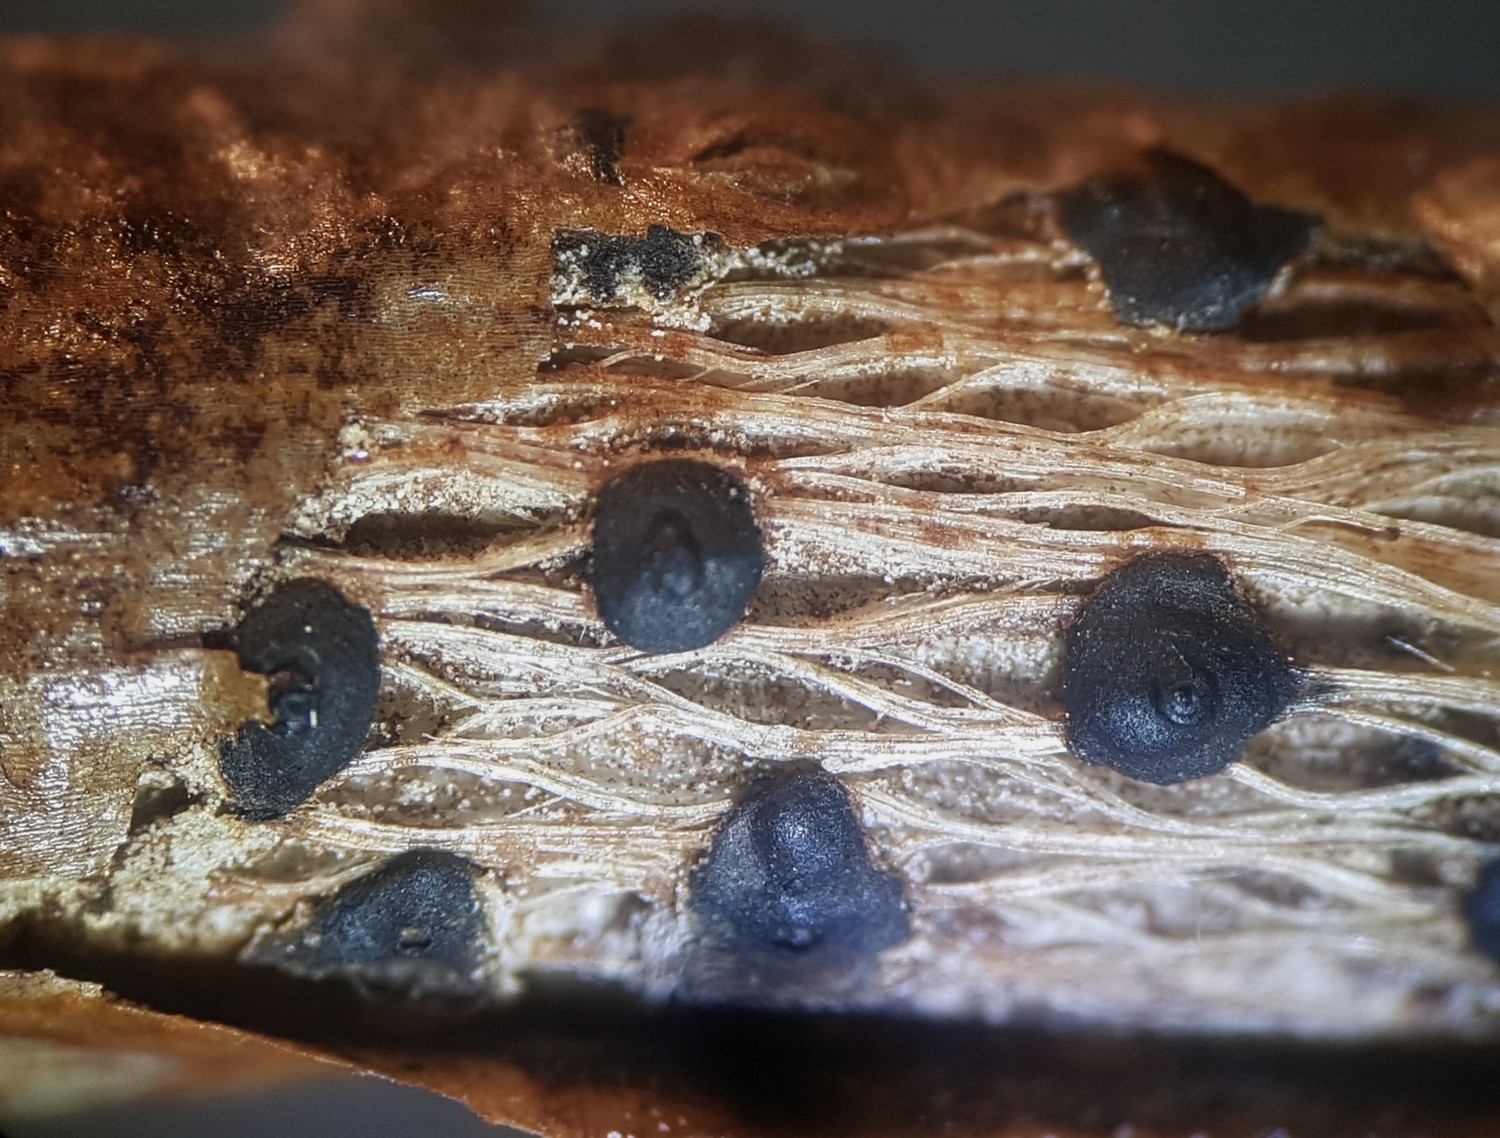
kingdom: Fungi
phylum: Ascomycota
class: Sordariomycetes
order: Diaporthales
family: Lamproconiaceae
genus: Hercospora
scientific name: Hercospora tiliae
